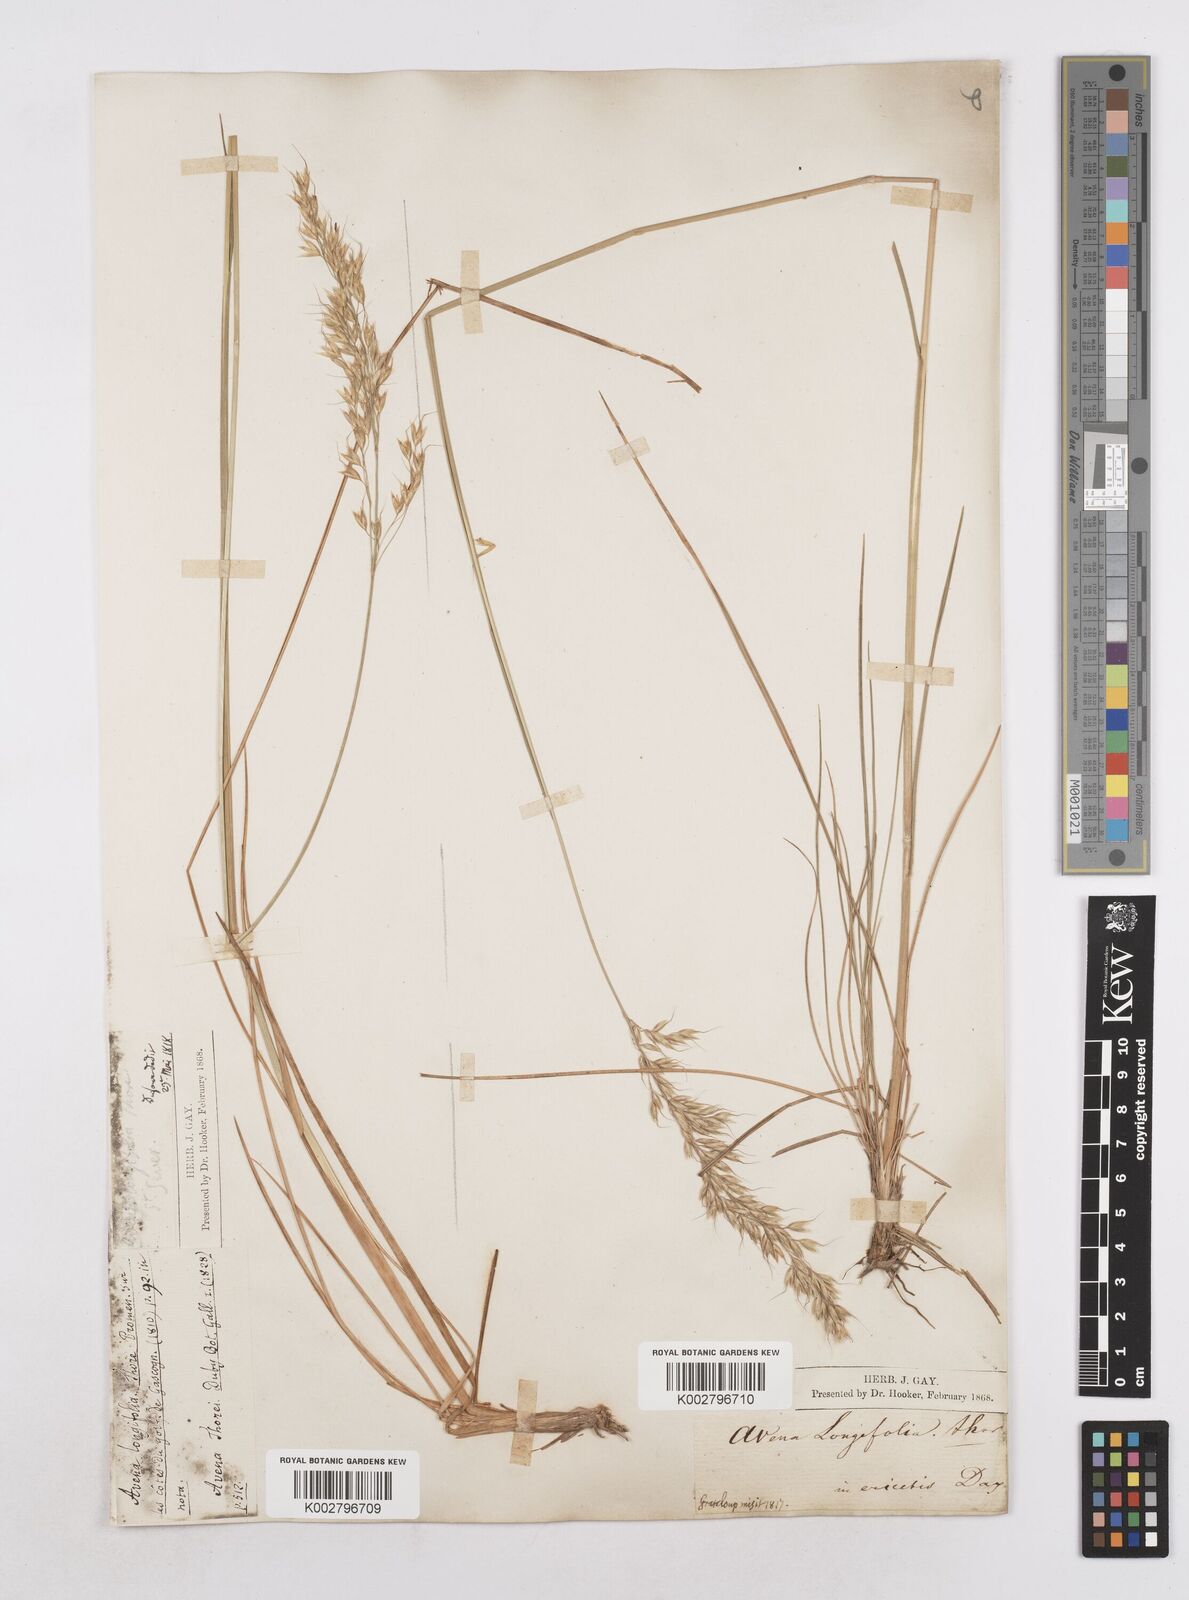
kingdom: Plantae
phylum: Tracheophyta
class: Liliopsida
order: Poales
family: Poaceae
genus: Arrhenatherum
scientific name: Arrhenatherum longifolium
